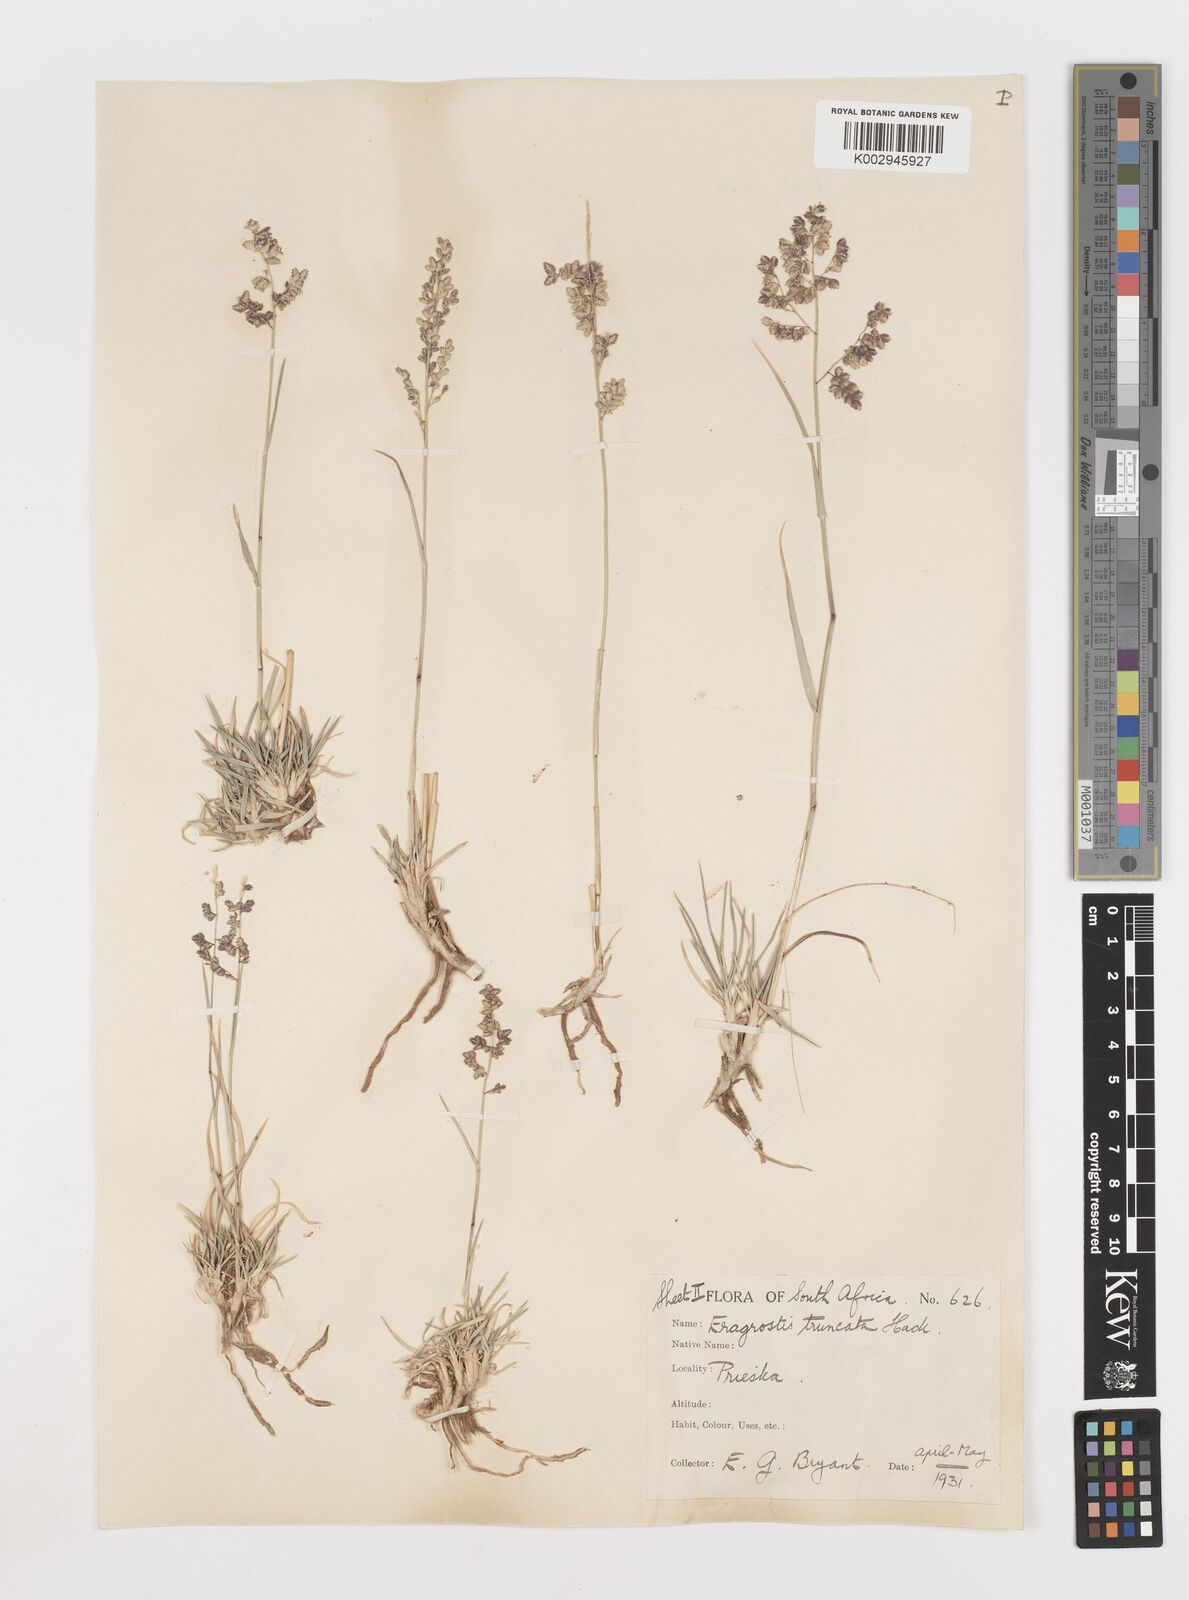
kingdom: Plantae
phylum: Tracheophyta
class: Liliopsida
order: Poales
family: Poaceae
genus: Eragrostis
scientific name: Eragrostis truncata
